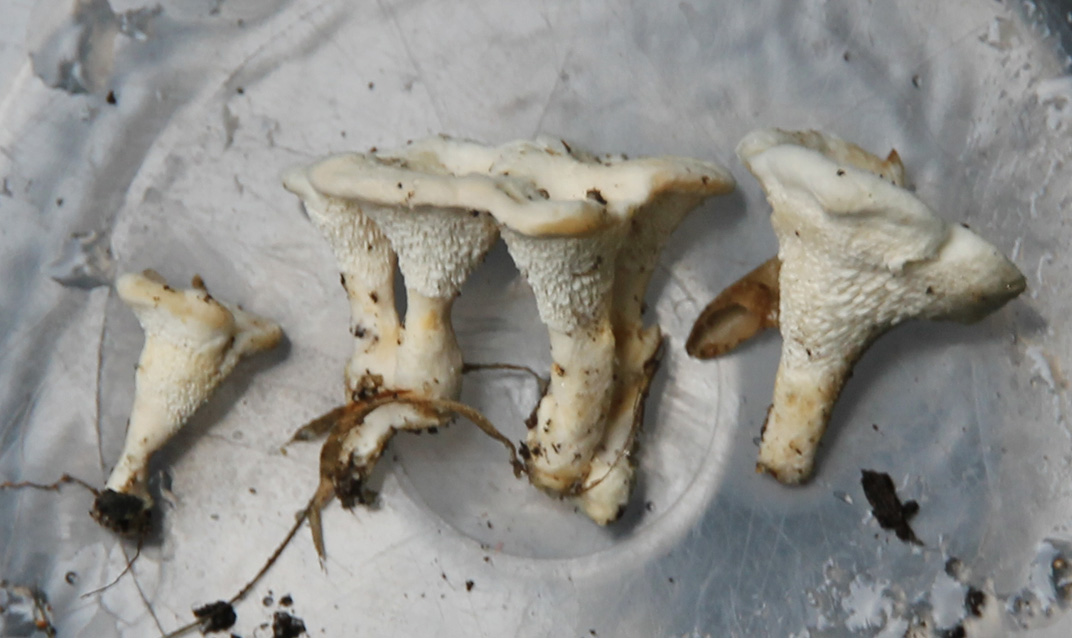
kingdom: Fungi
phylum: Basidiomycota
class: Agaricomycetes
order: Cantharellales
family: Hydnaceae
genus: Sistotrema
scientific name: Sistotrema confluens
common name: stilket kroneskorpe
